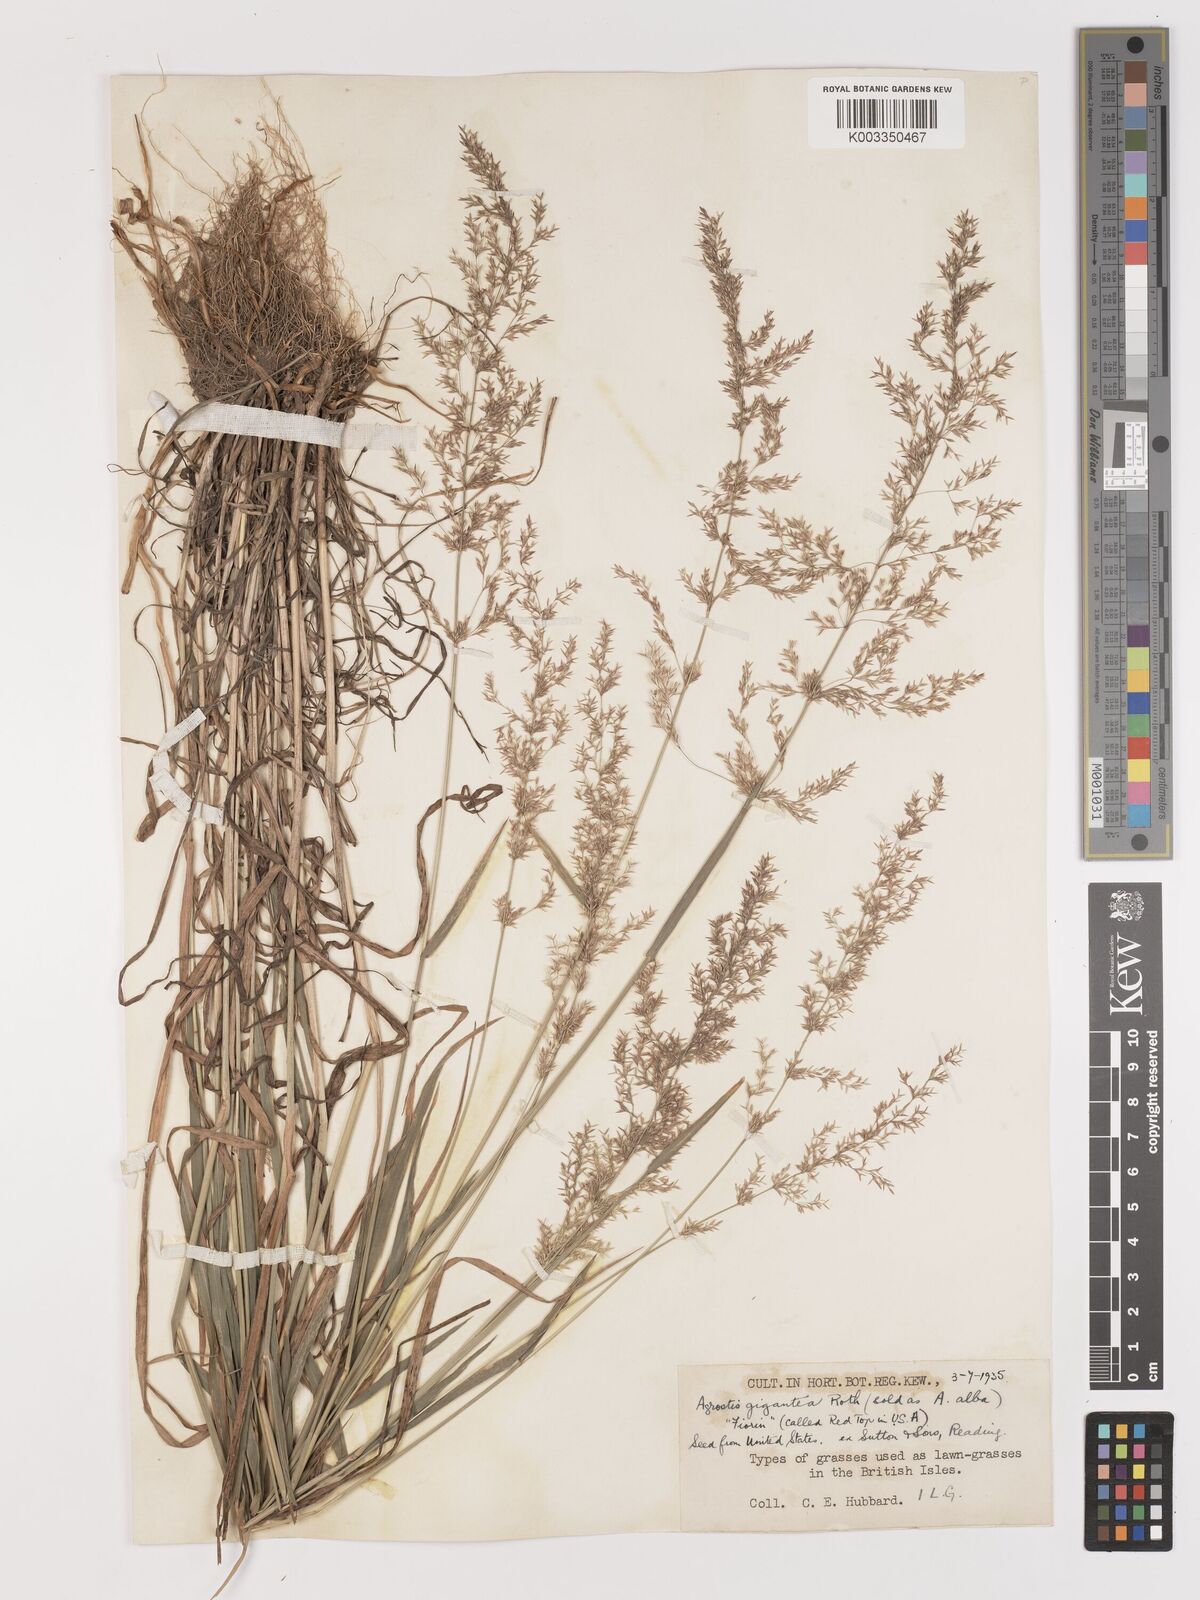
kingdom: Plantae
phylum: Tracheophyta
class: Liliopsida
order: Poales
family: Poaceae
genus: Agrostis
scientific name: Agrostis gigantea
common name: Black bent
